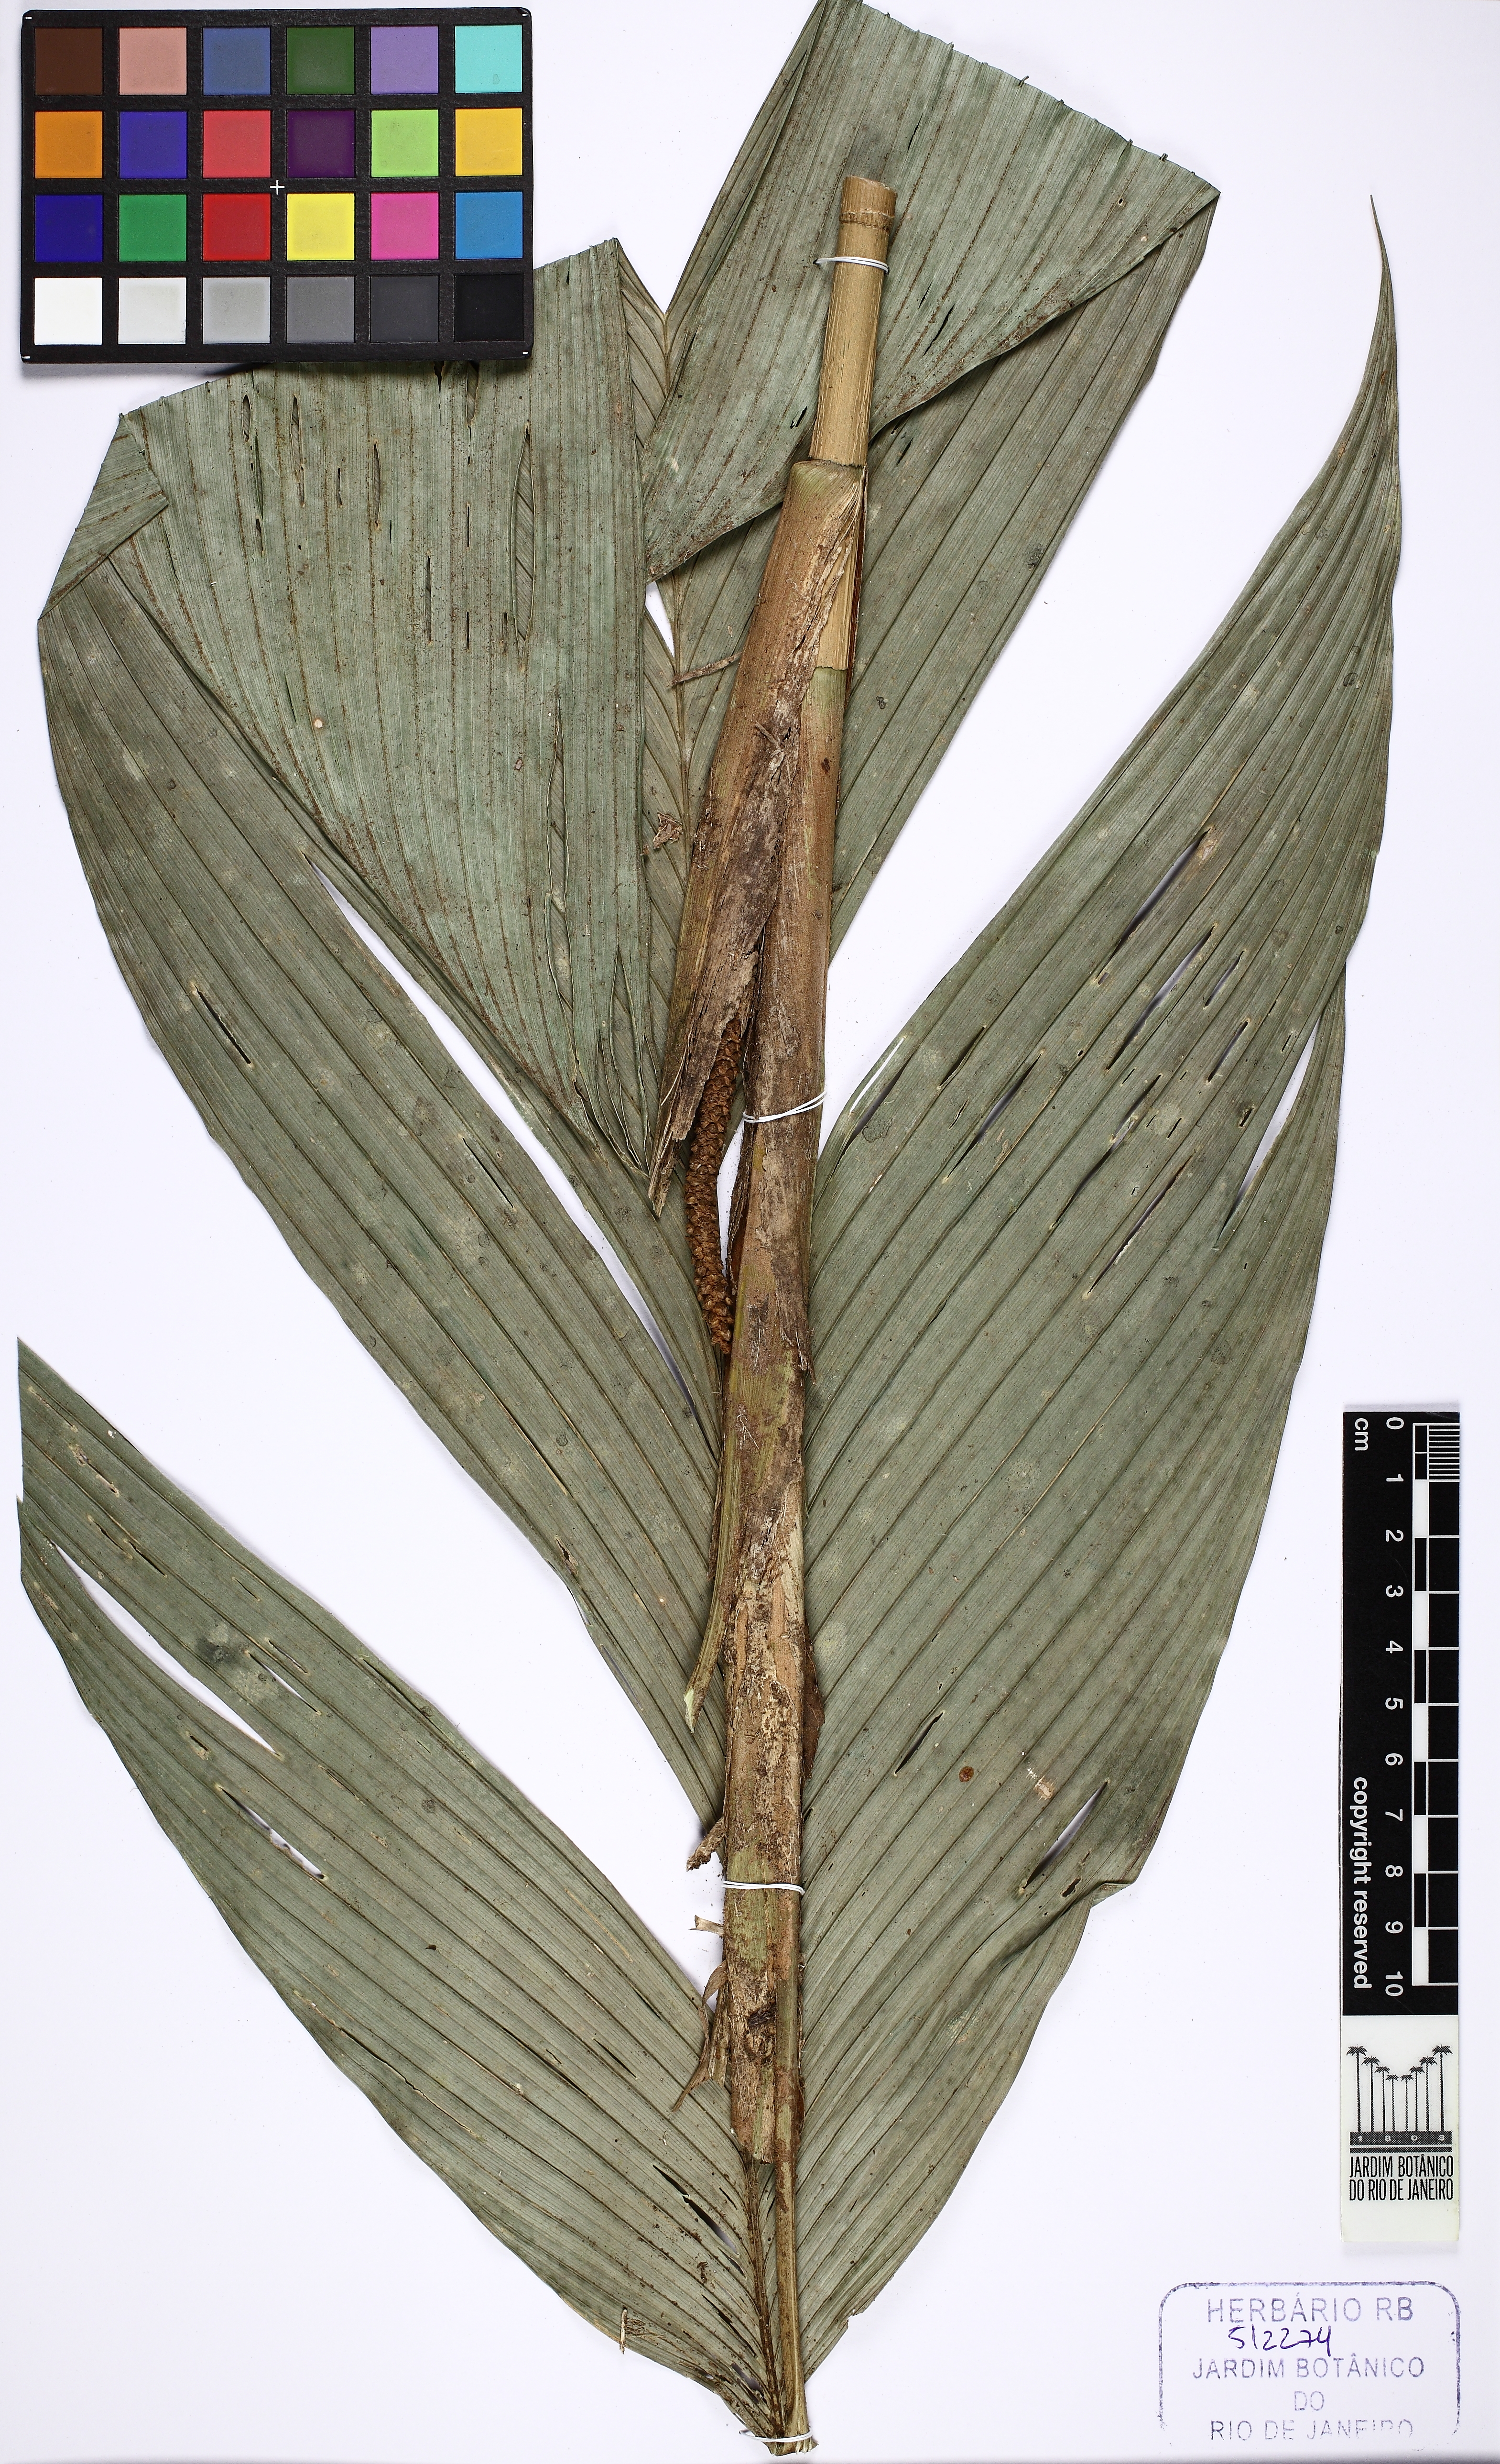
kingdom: Plantae
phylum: Tracheophyta
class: Liliopsida
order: Arecales
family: Arecaceae
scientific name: Arecaceae
